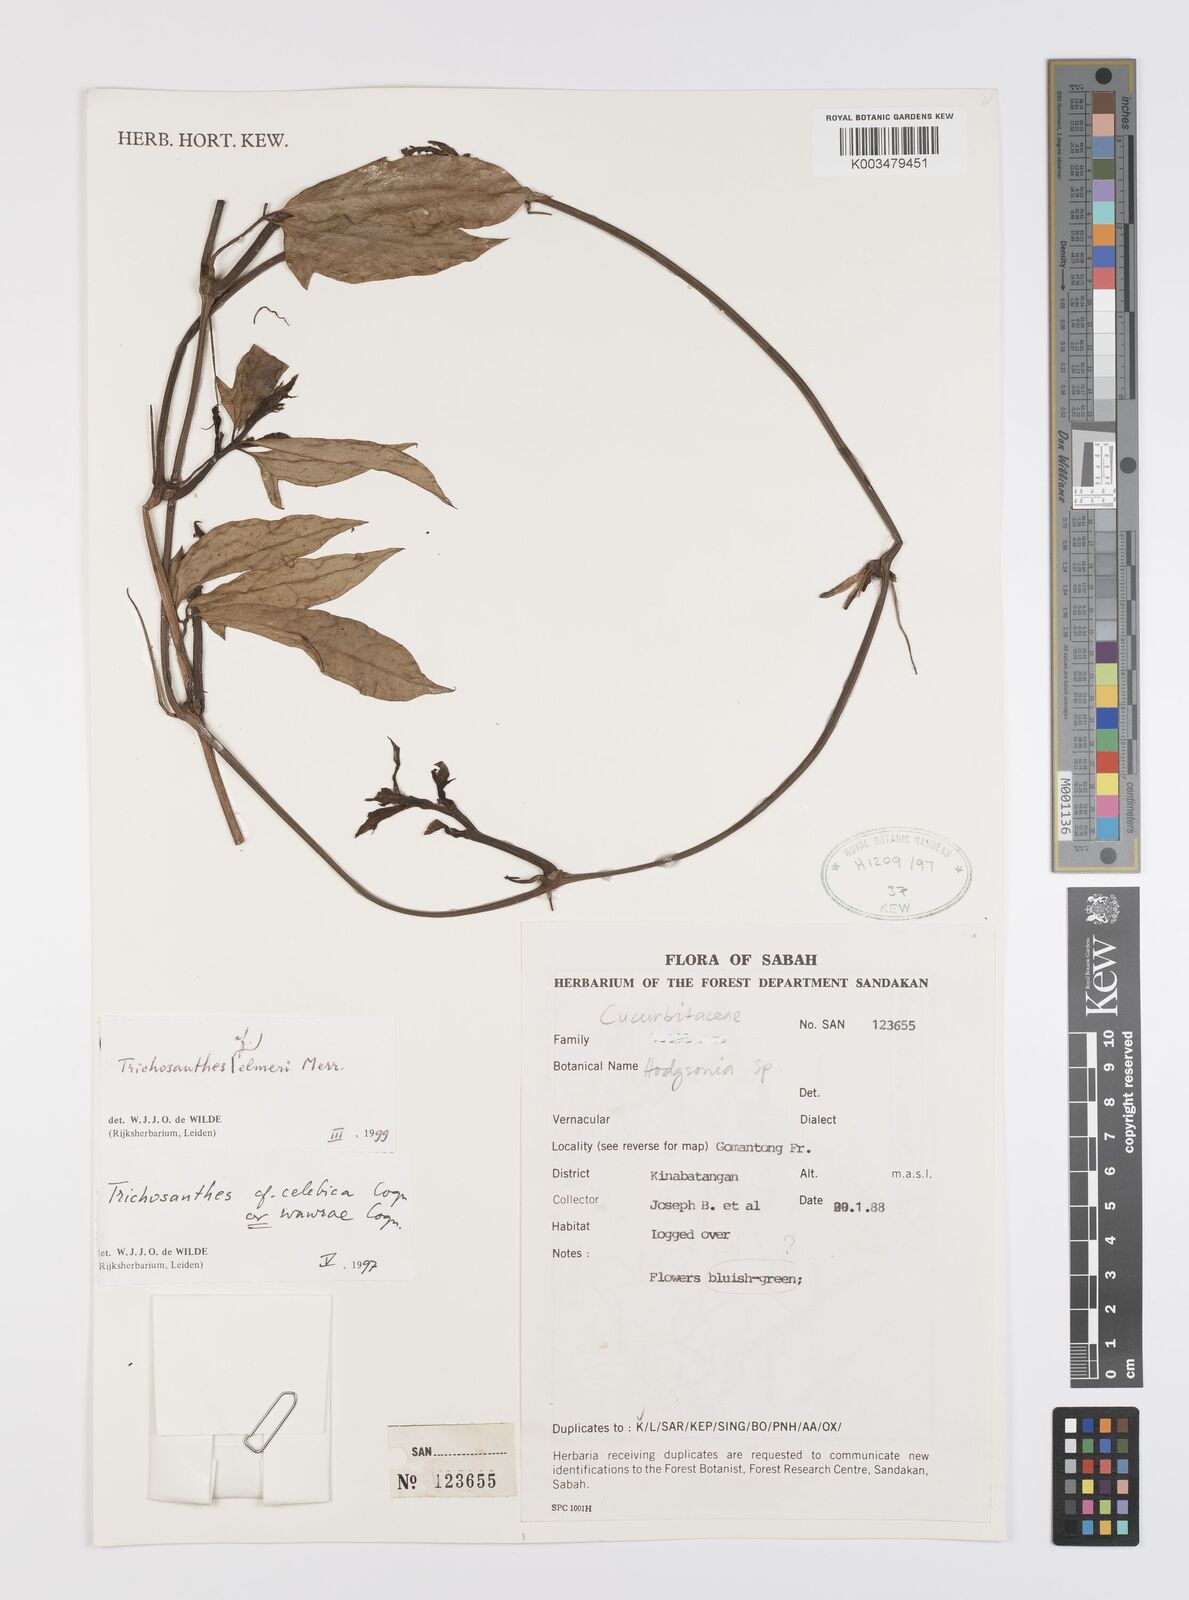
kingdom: Plantae
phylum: Tracheophyta
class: Magnoliopsida
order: Cucurbitales
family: Cucurbitaceae
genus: Trichosanthes
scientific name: Trichosanthes elmeri
